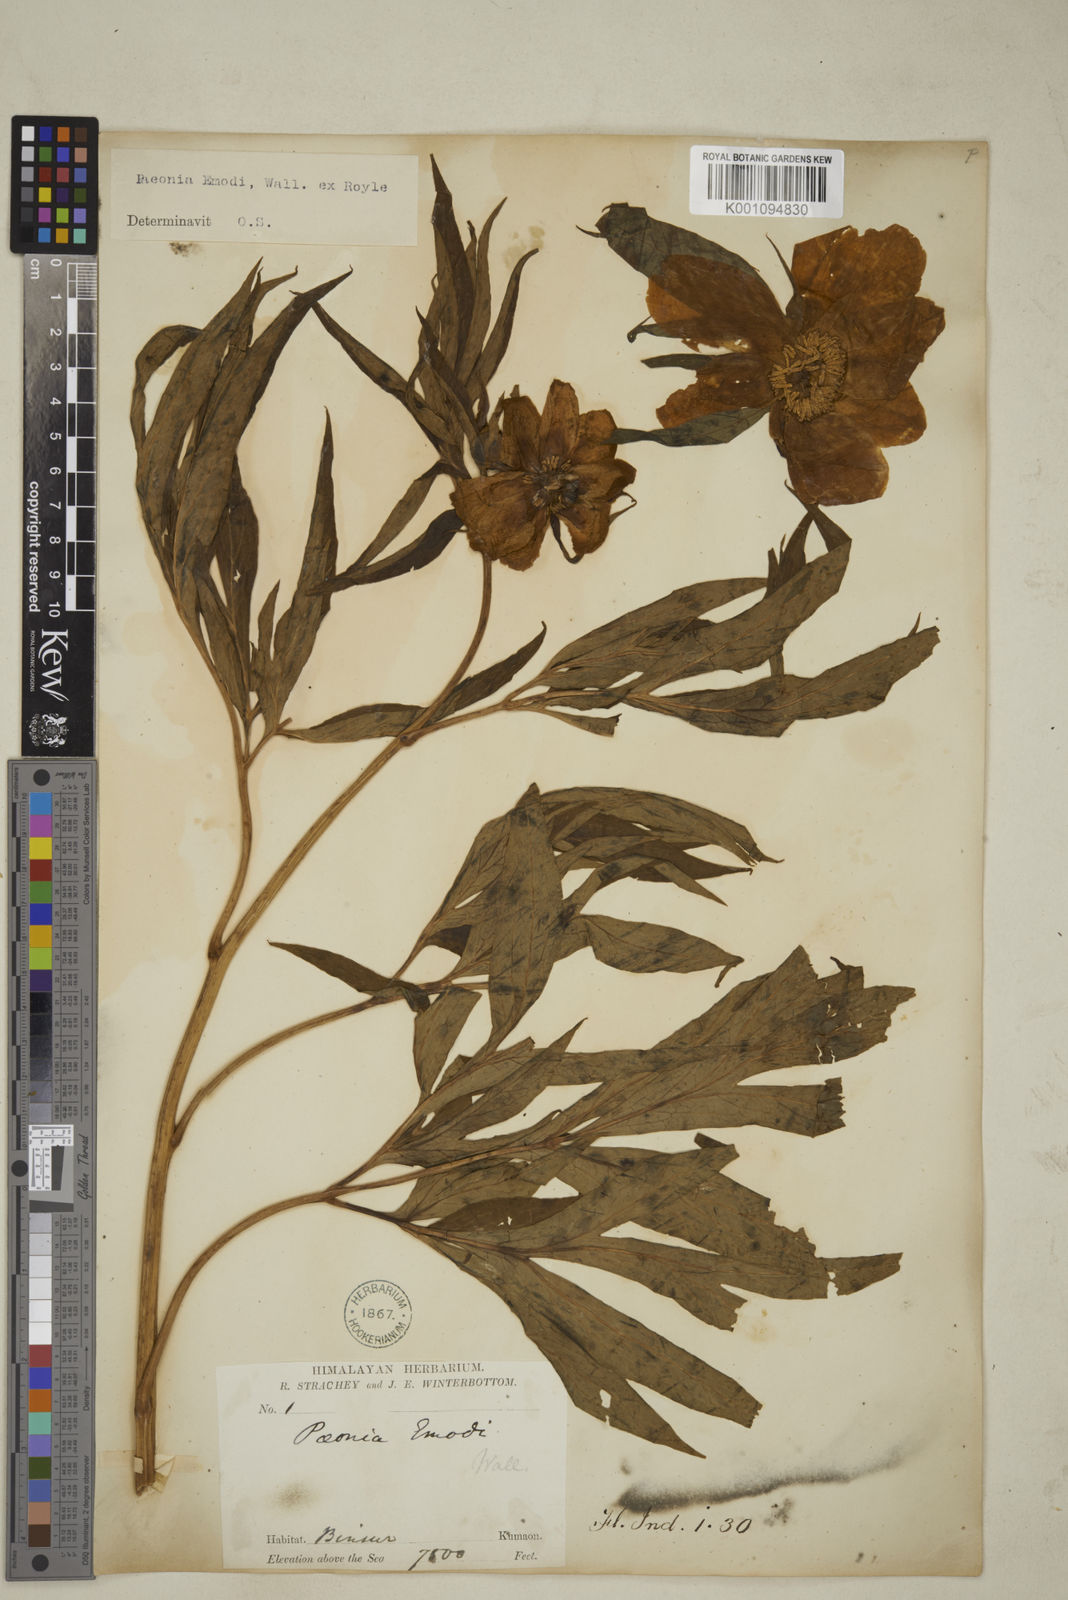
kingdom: Plantae
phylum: Tracheophyta
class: Magnoliopsida
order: Saxifragales
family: Paeoniaceae
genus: Paeonia
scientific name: Paeonia emodi
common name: Himalayan peony
